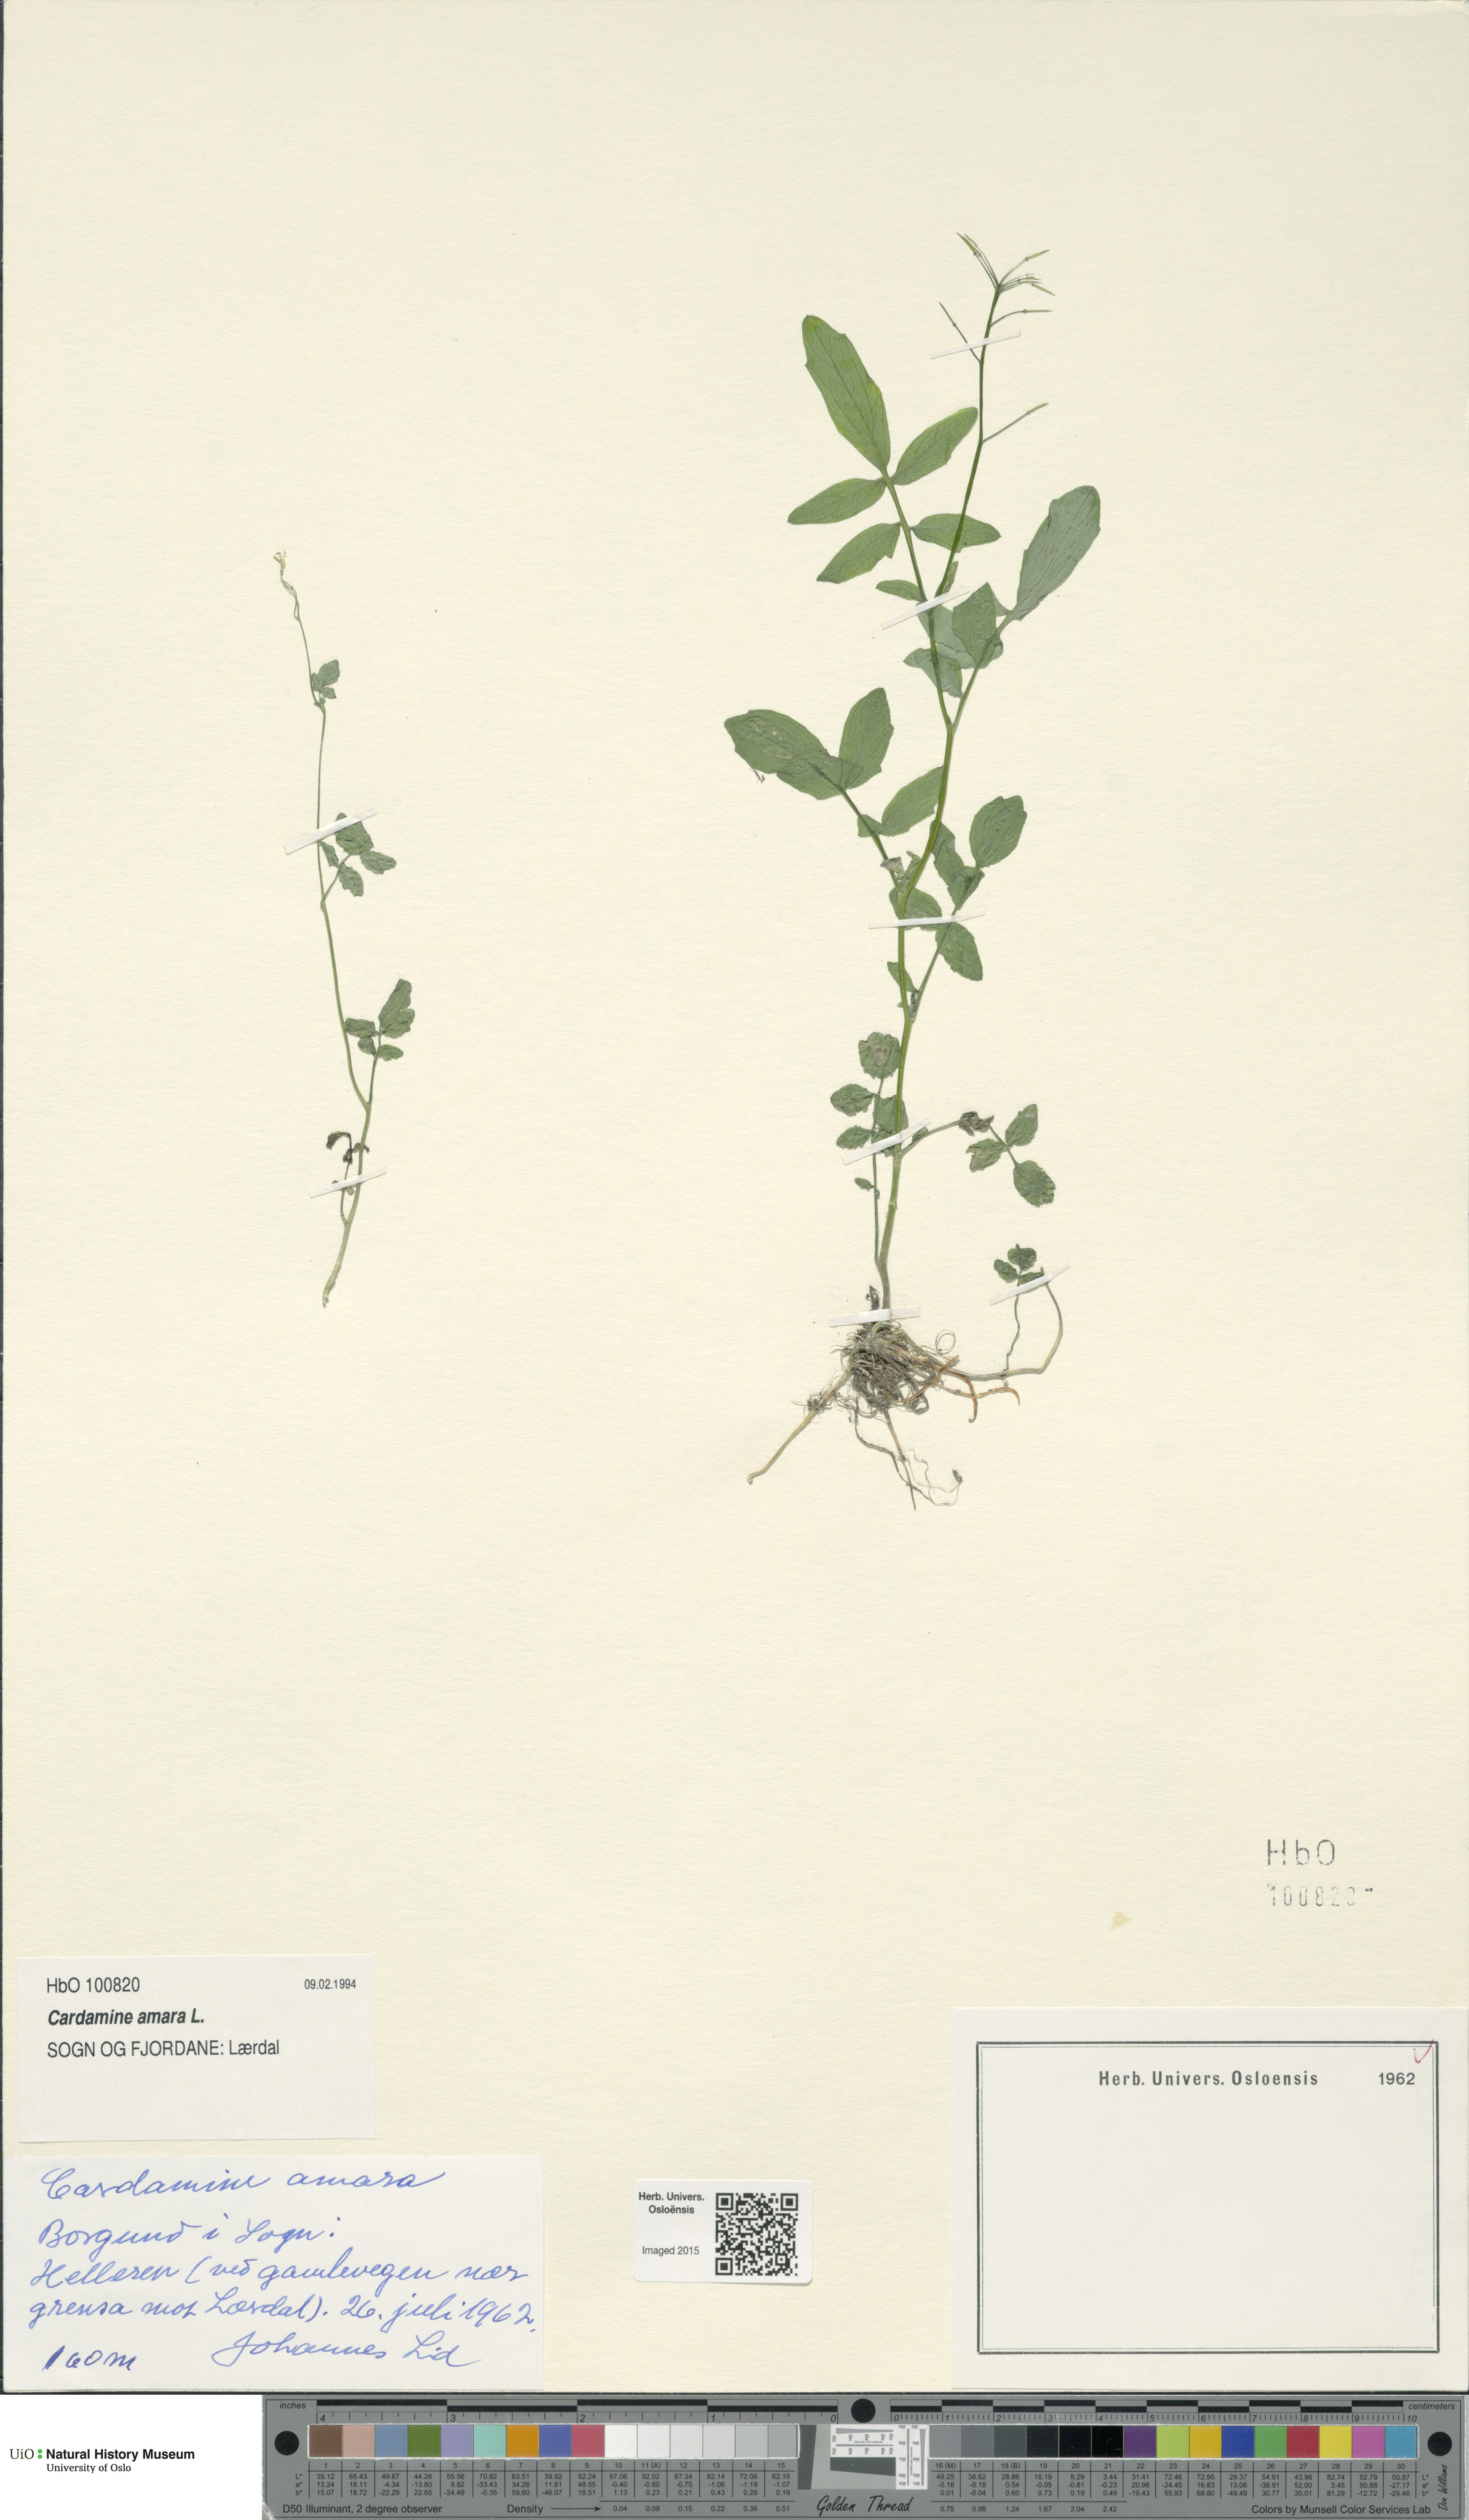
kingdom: Plantae
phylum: Tracheophyta
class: Magnoliopsida
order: Brassicales
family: Brassicaceae
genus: Cardamine
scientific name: Cardamine amara
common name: Large bitter-cress
